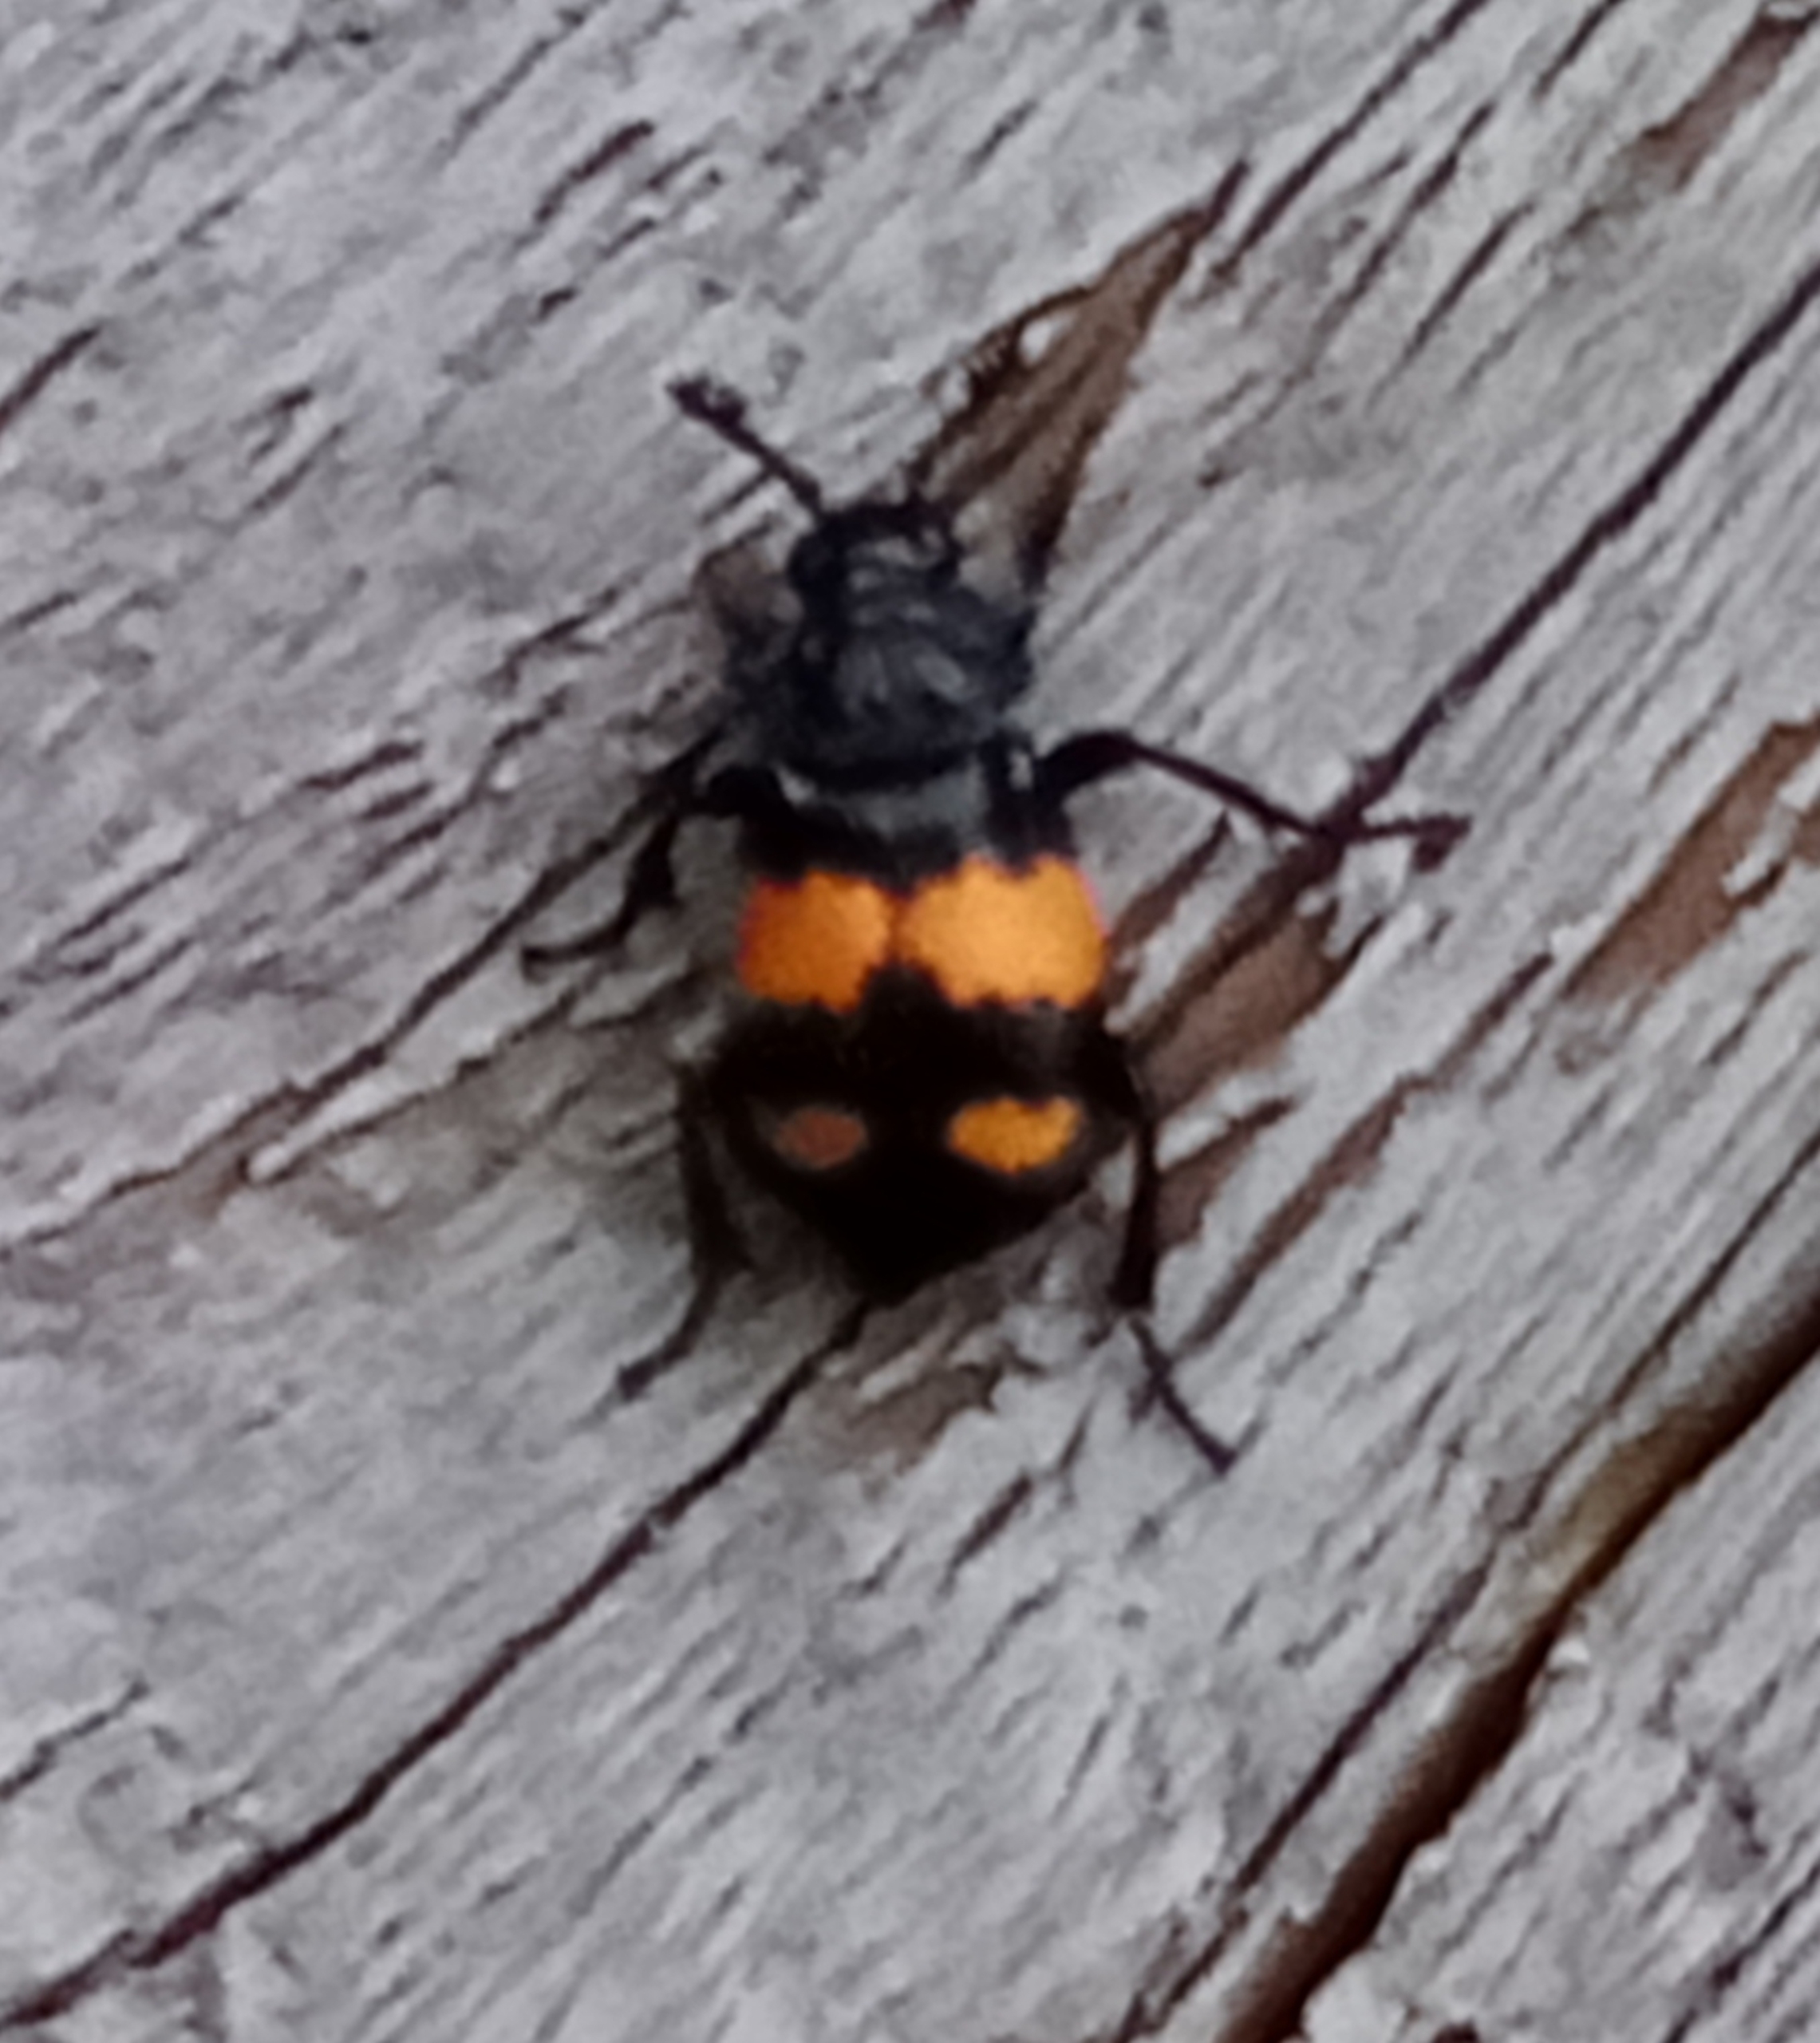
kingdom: Animalia
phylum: Arthropoda
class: Insecta
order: Coleoptera
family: Staphylinidae
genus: Nicrophorus
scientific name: Nicrophorus vespilloides
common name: Sortkøllet ådselgraver
